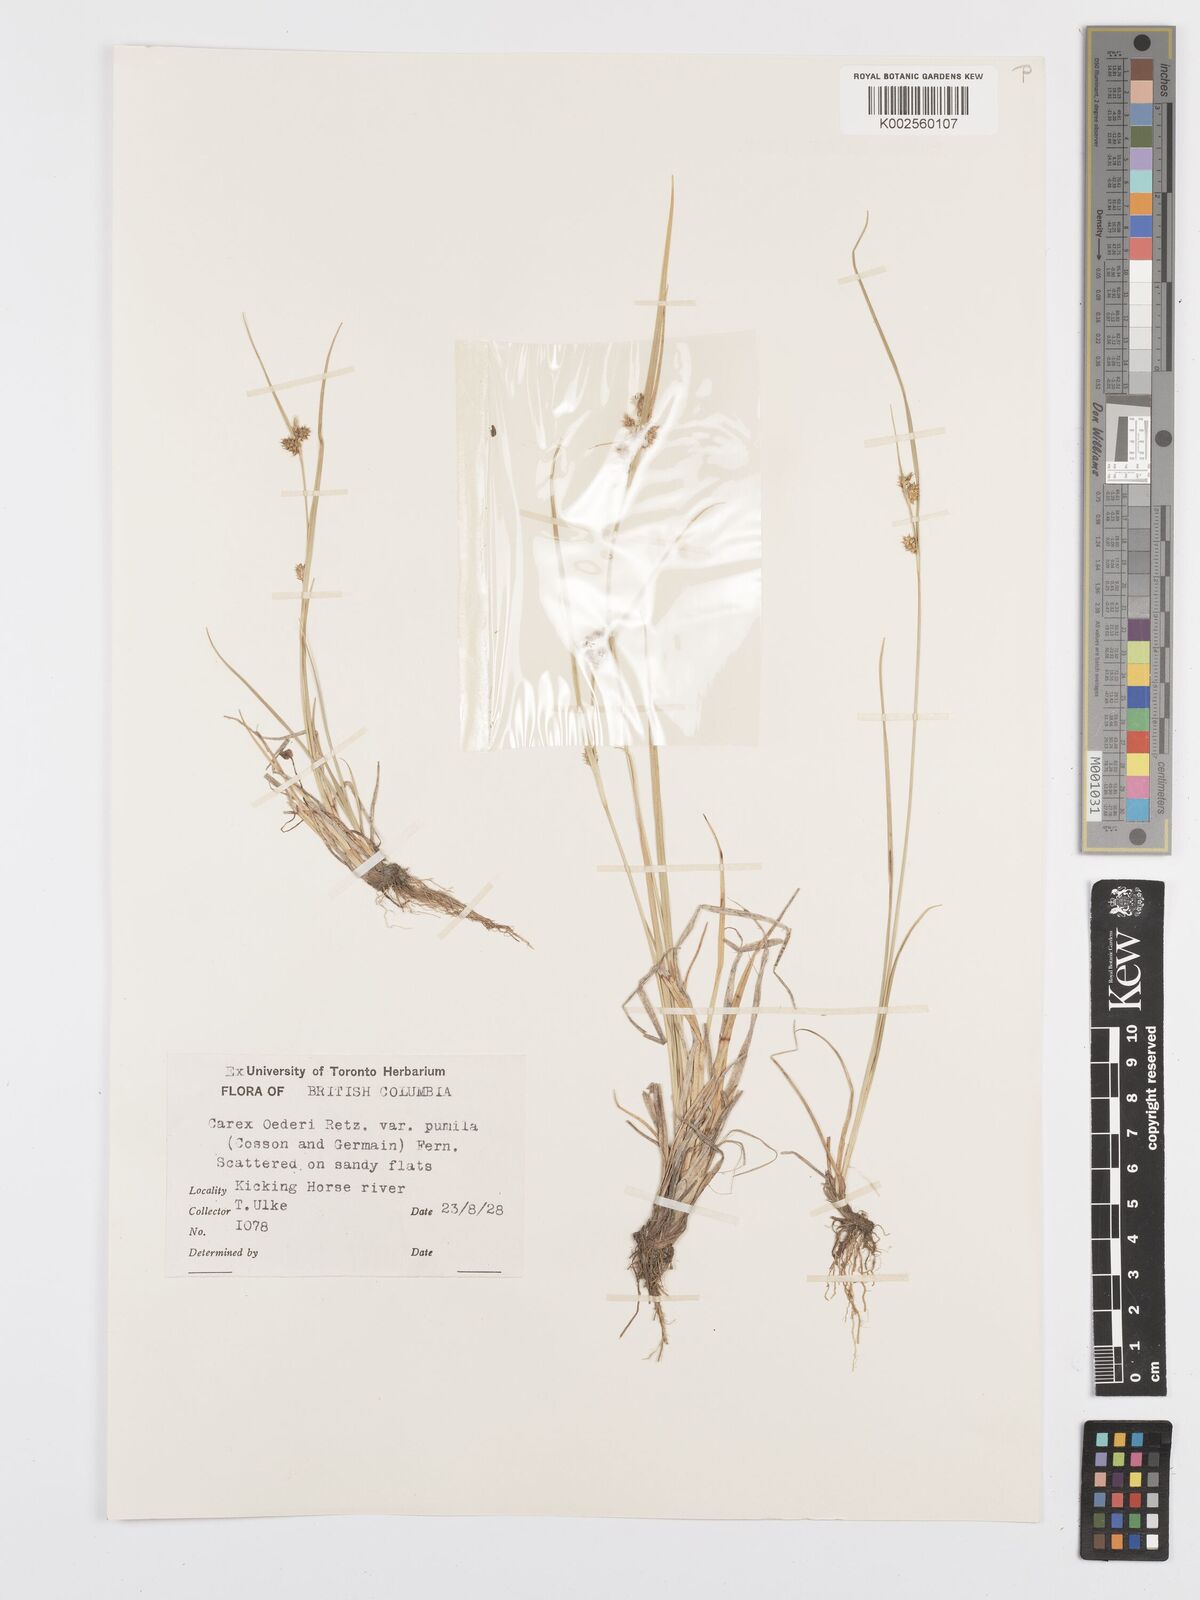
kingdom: Plantae
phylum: Tracheophyta
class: Liliopsida
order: Poales
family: Cyperaceae
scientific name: Cyperaceae
